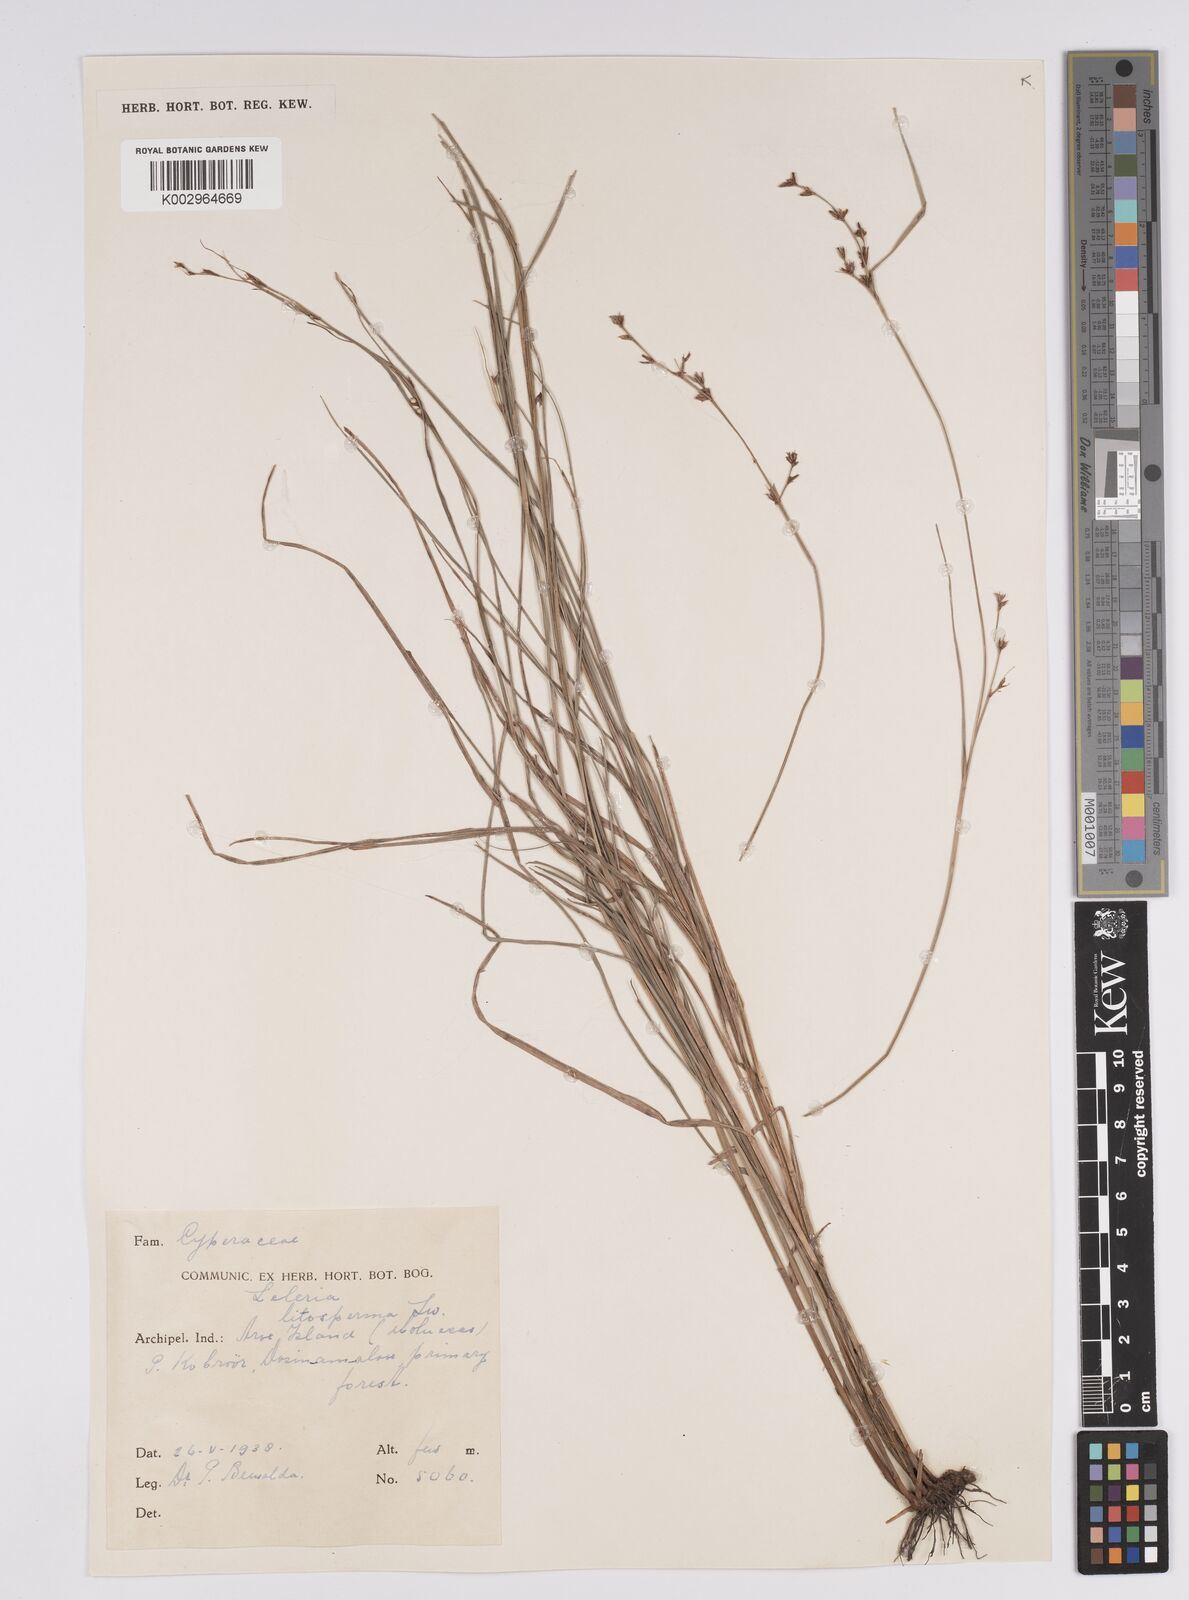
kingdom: Plantae
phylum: Tracheophyta
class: Liliopsida
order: Poales
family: Cyperaceae
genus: Scleria
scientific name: Scleria lithosperma
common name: Florida keys nut-rush
